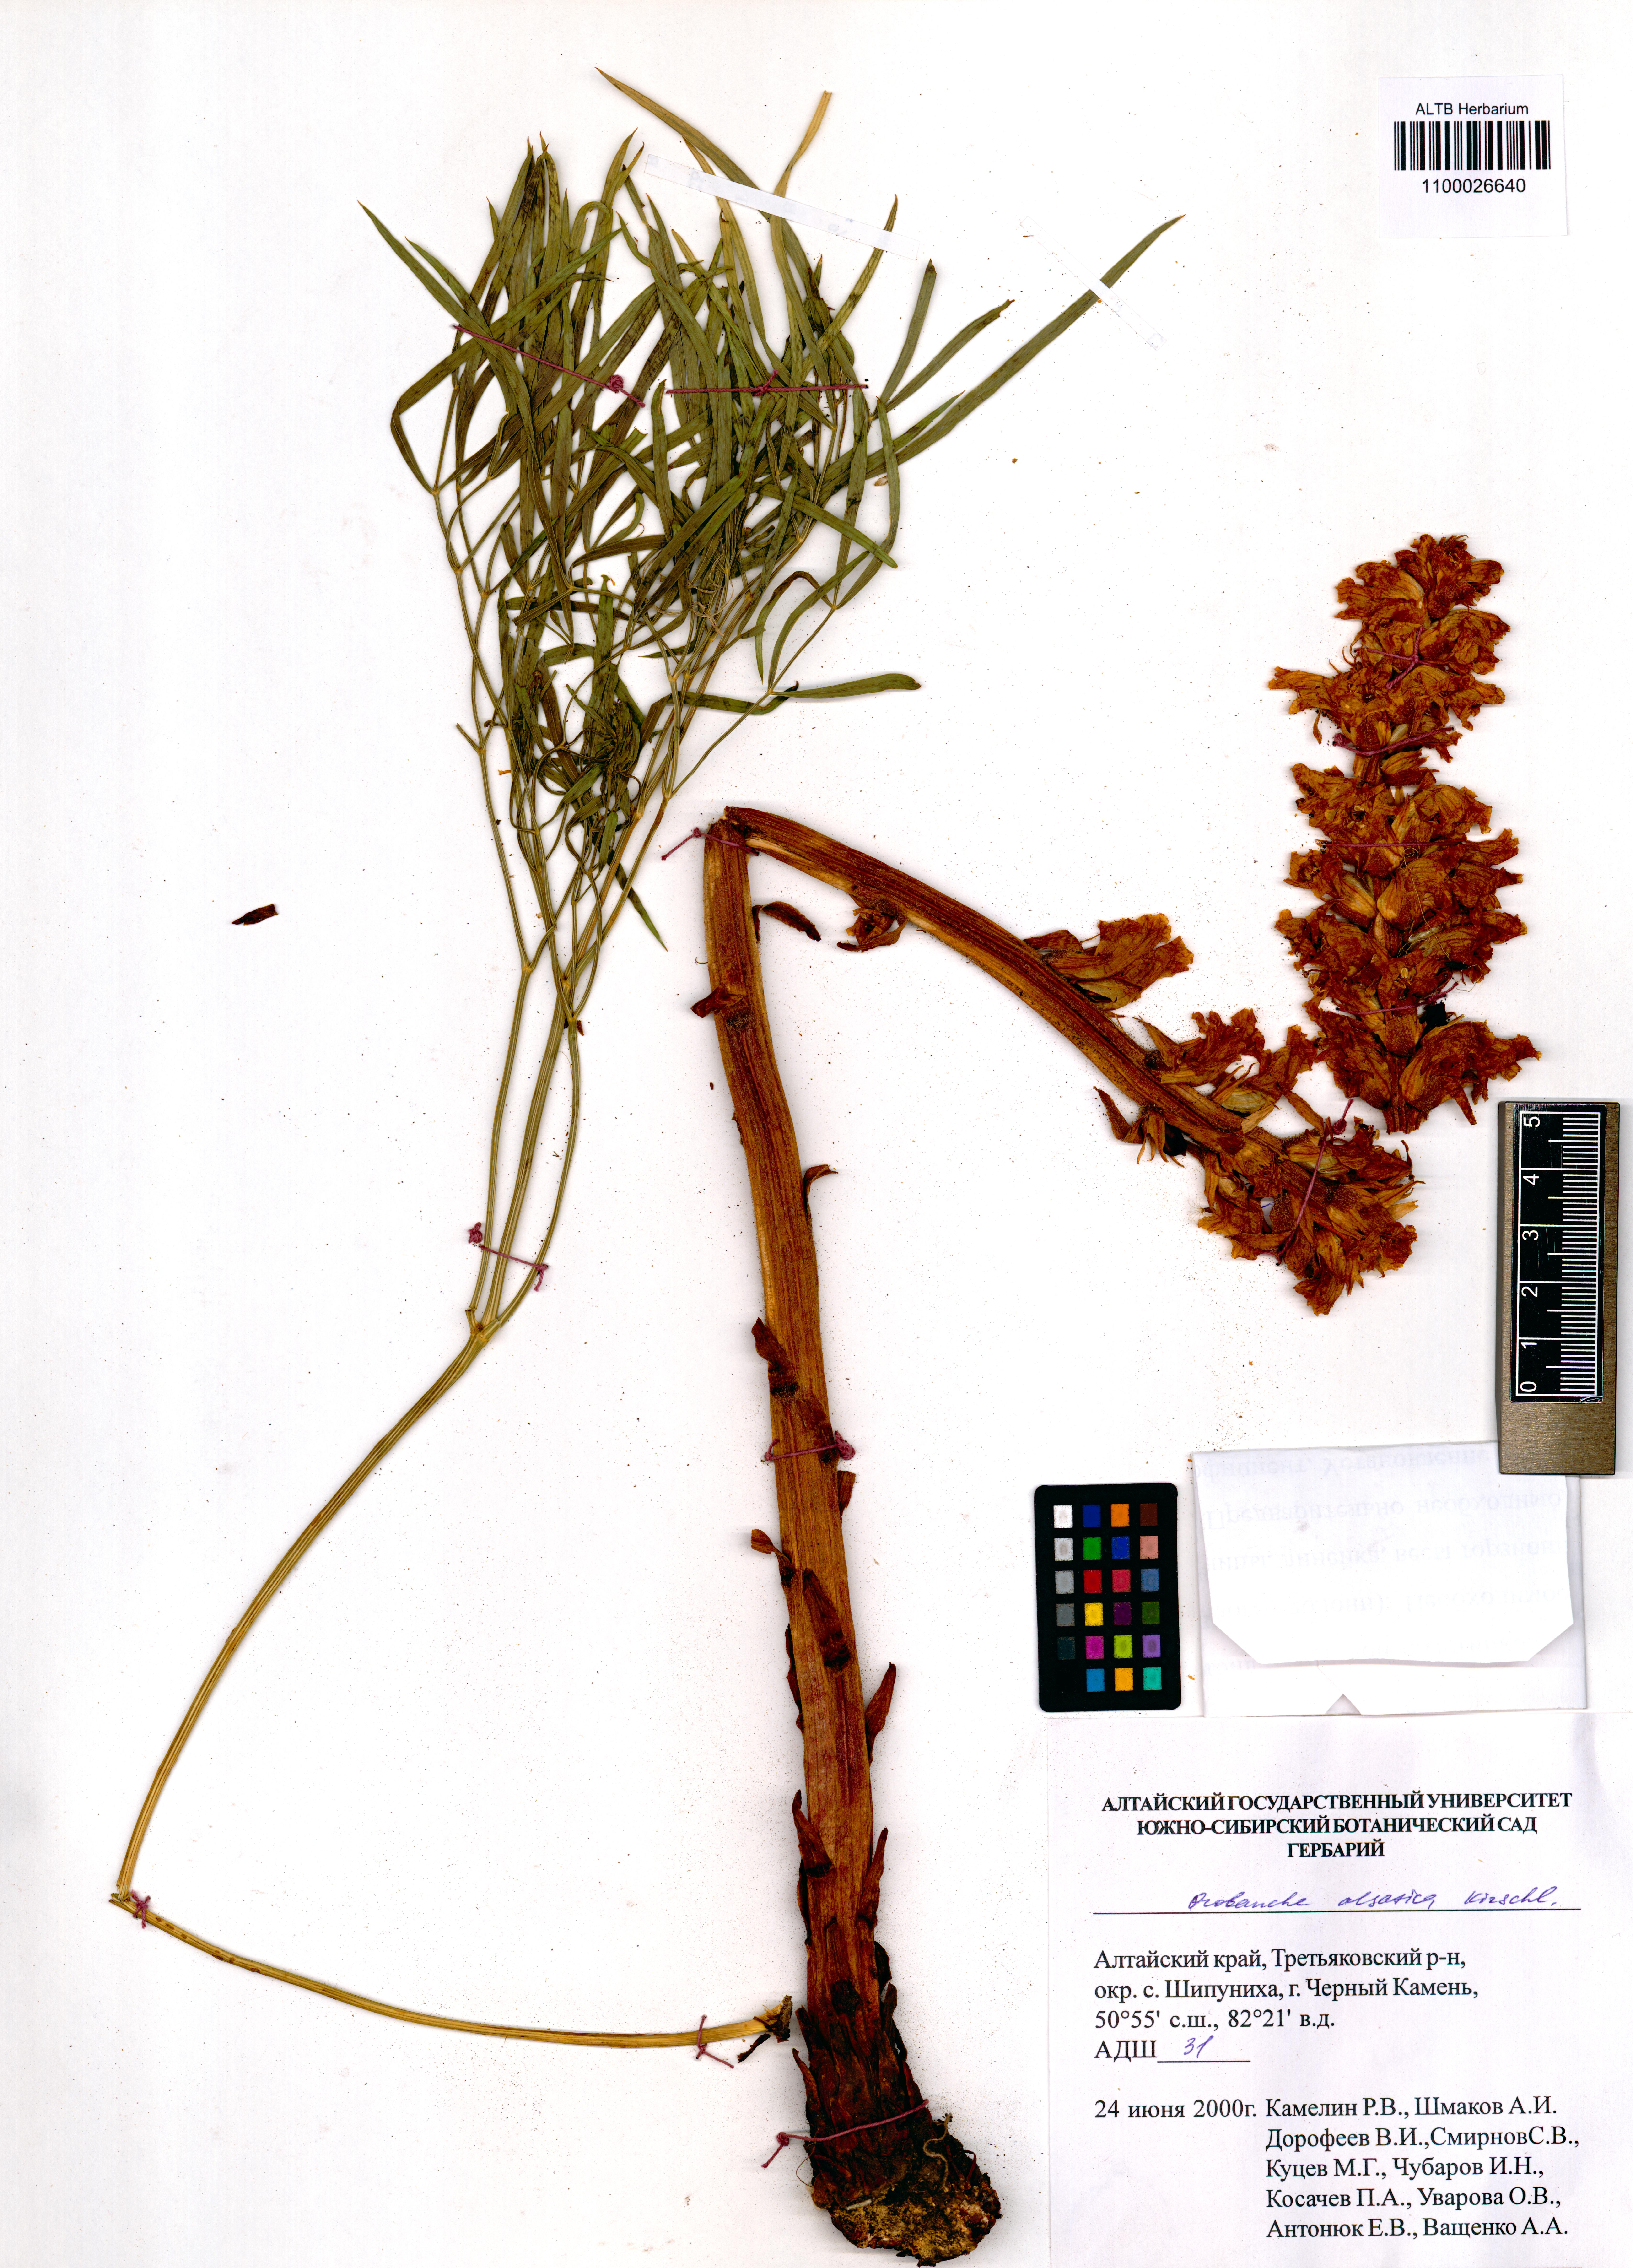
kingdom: Plantae
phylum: Tracheophyta
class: Magnoliopsida
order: Lamiales
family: Orobanchaceae
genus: Orobanche
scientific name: Orobanche alsatica
